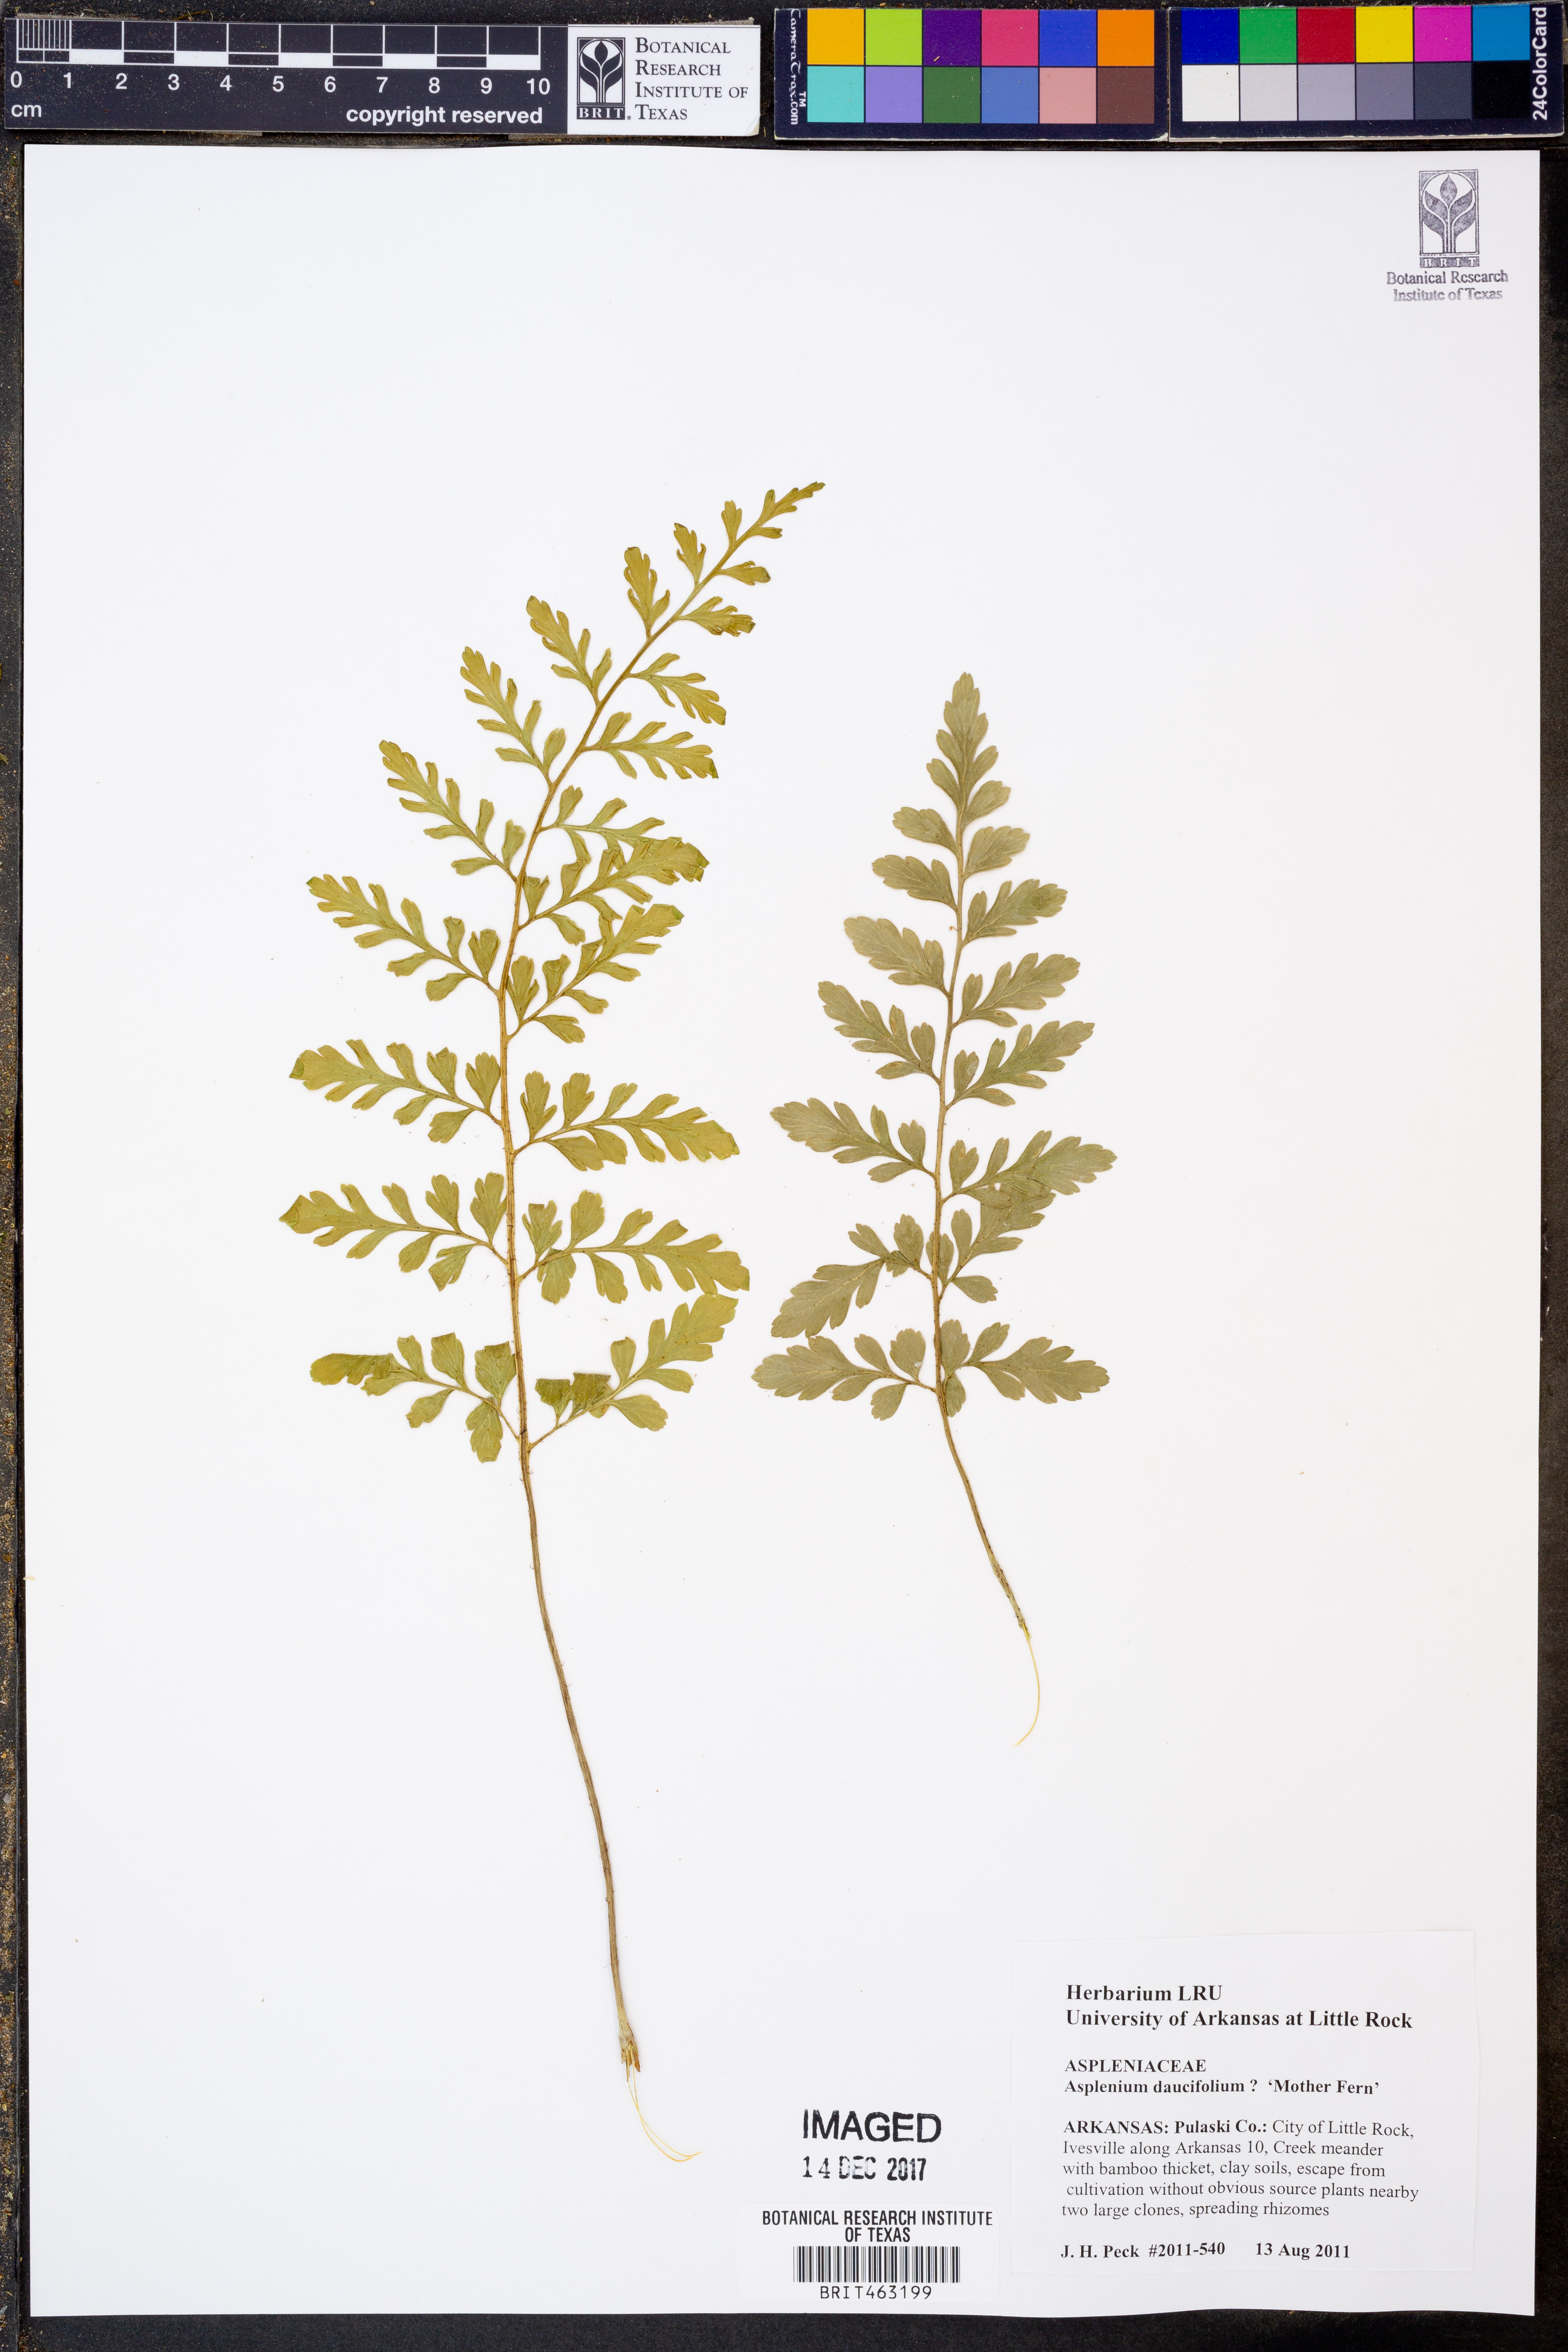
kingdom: Plantae
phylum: Tracheophyta
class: Polypodiopsida
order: Polypodiales
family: Aspleniaceae
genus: Asplenium
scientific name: Asplenium daucifolium
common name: Mauritius spleenwort
